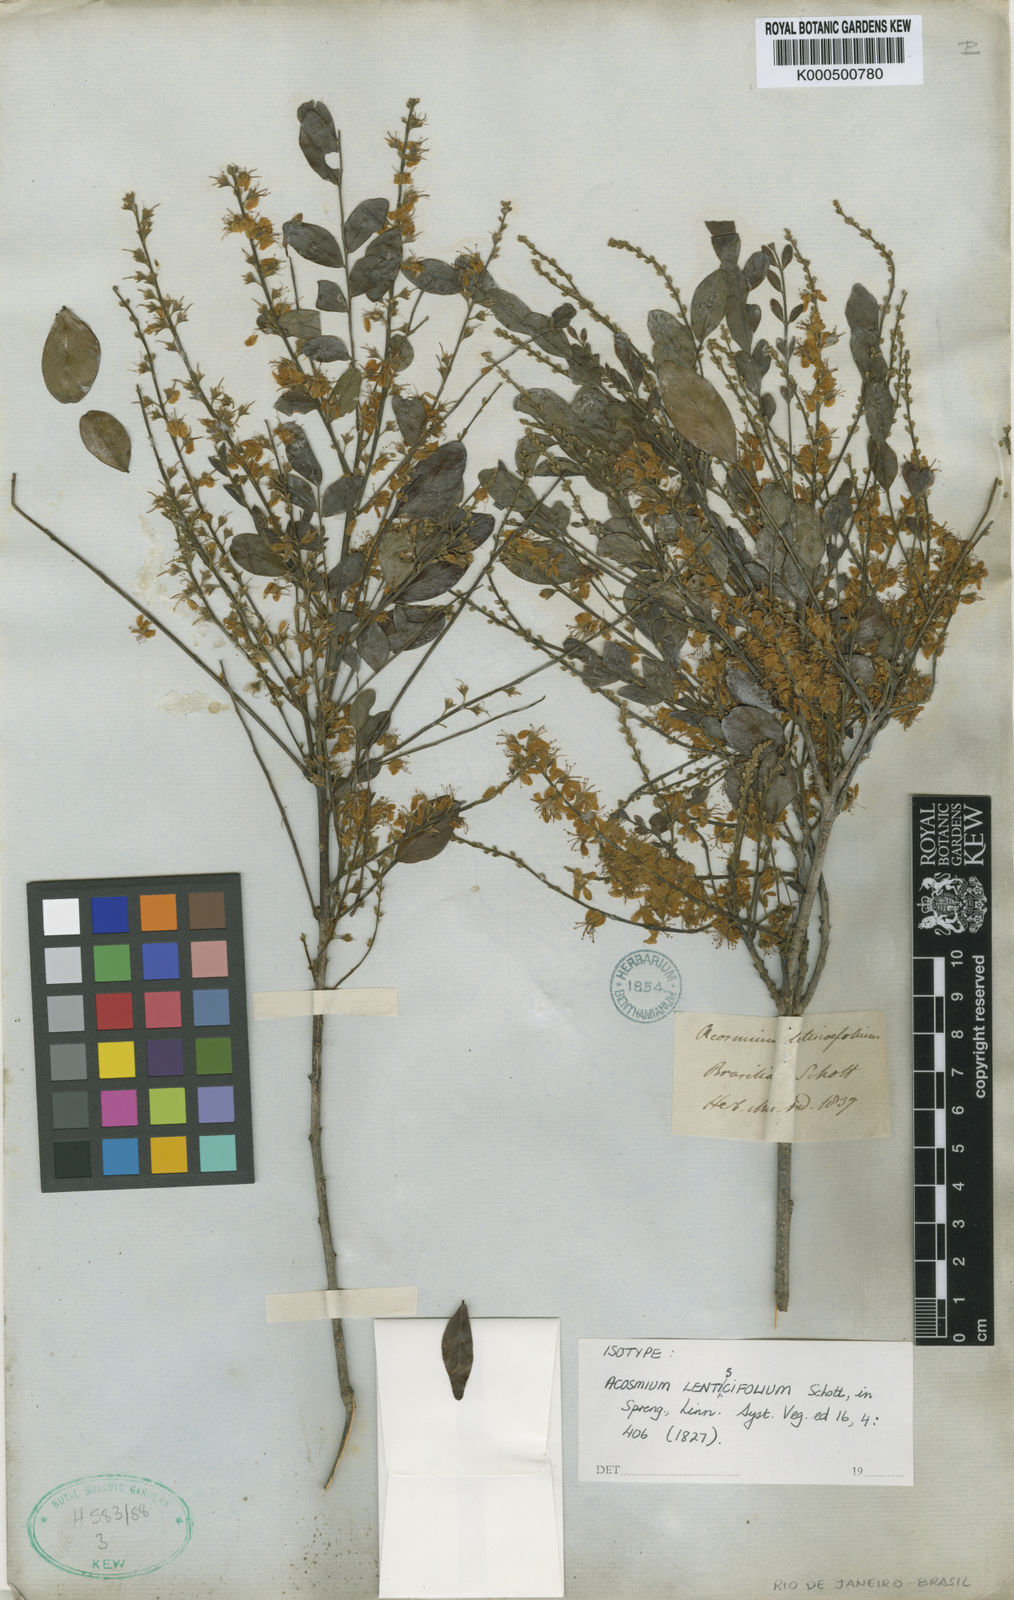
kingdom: Plantae
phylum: Tracheophyta
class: Magnoliopsida
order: Fabales
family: Fabaceae
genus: Acosmium
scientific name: Acosmium lentiscifolium
